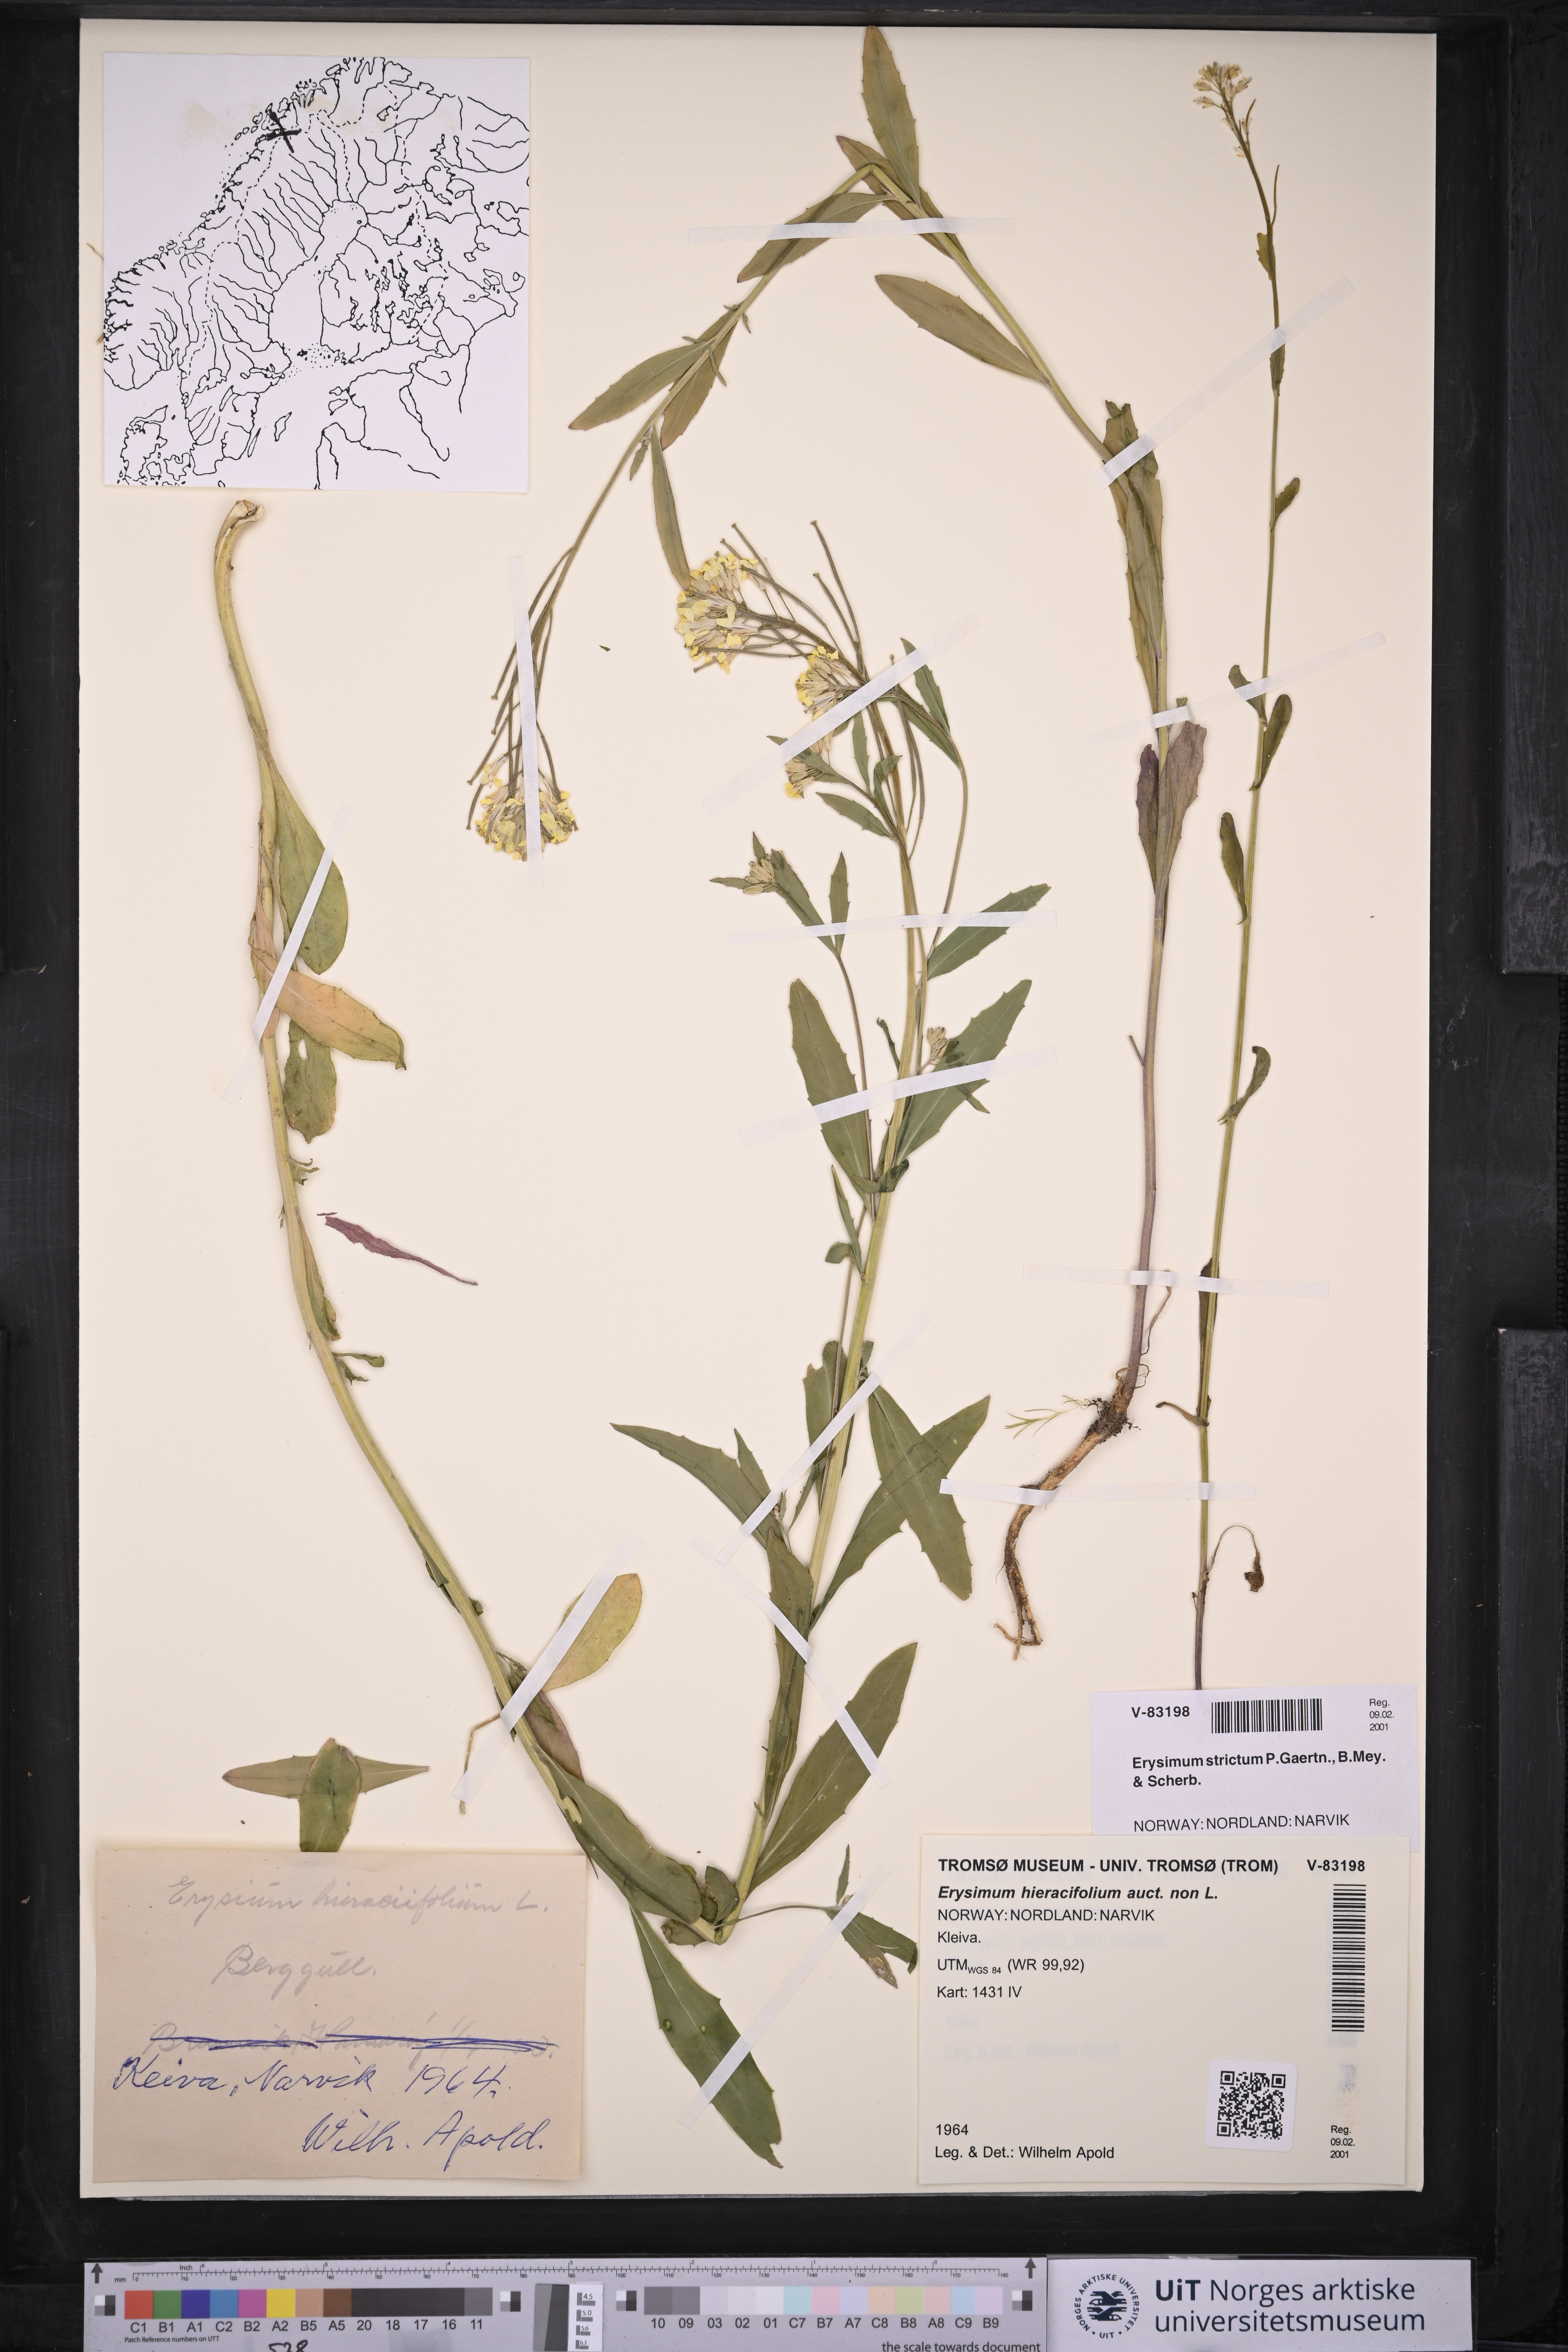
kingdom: Plantae
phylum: Tracheophyta
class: Magnoliopsida
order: Brassicales
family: Brassicaceae
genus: Erysimum
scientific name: Erysimum hieraciifolium
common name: European wallflower
